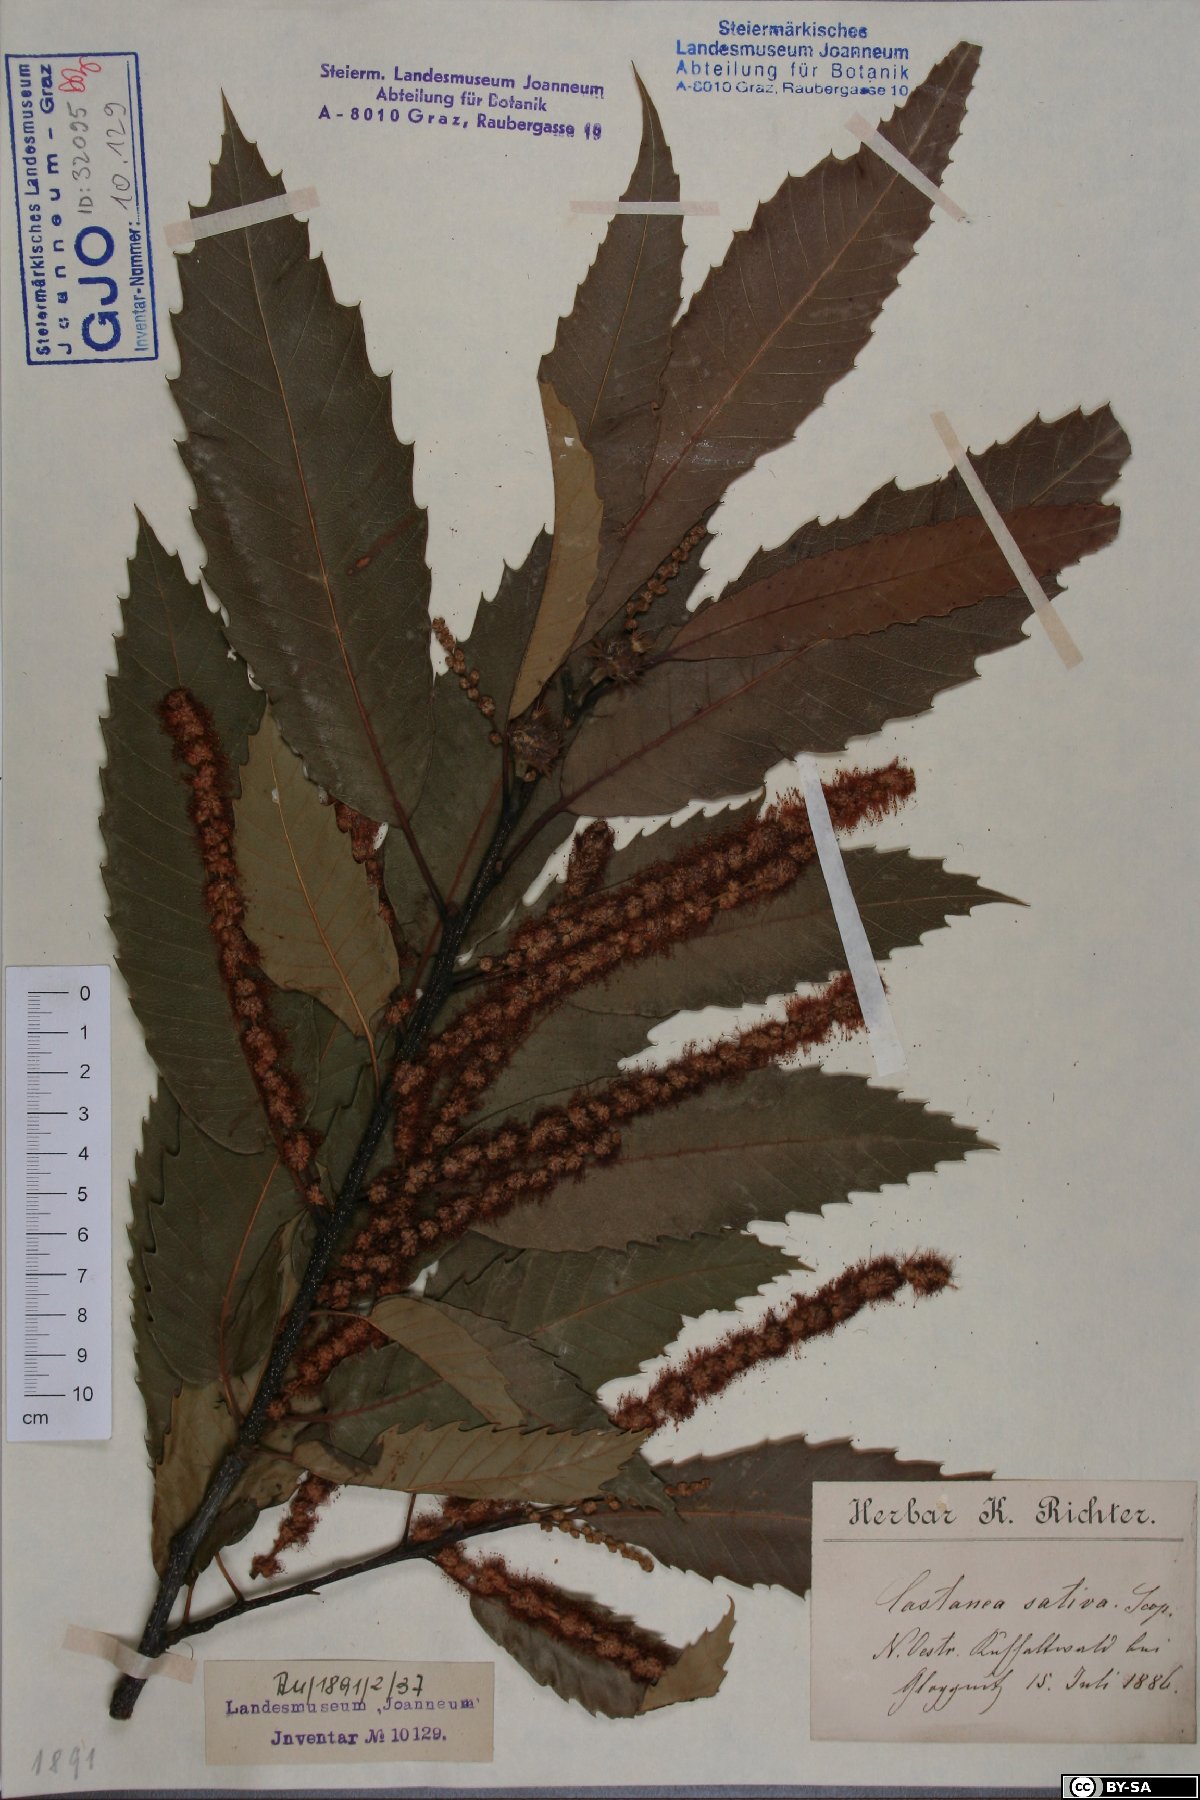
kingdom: Plantae
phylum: Tracheophyta
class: Magnoliopsida
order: Fagales
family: Fagaceae
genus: Castanea
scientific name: Castanea sativa
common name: Sweet chestnut
